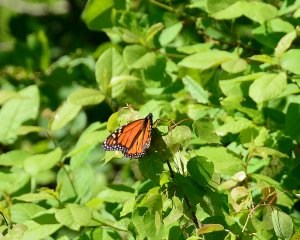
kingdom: Animalia
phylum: Arthropoda
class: Insecta
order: Lepidoptera
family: Nymphalidae
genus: Danaus
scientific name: Danaus plexippus
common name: Monarch
